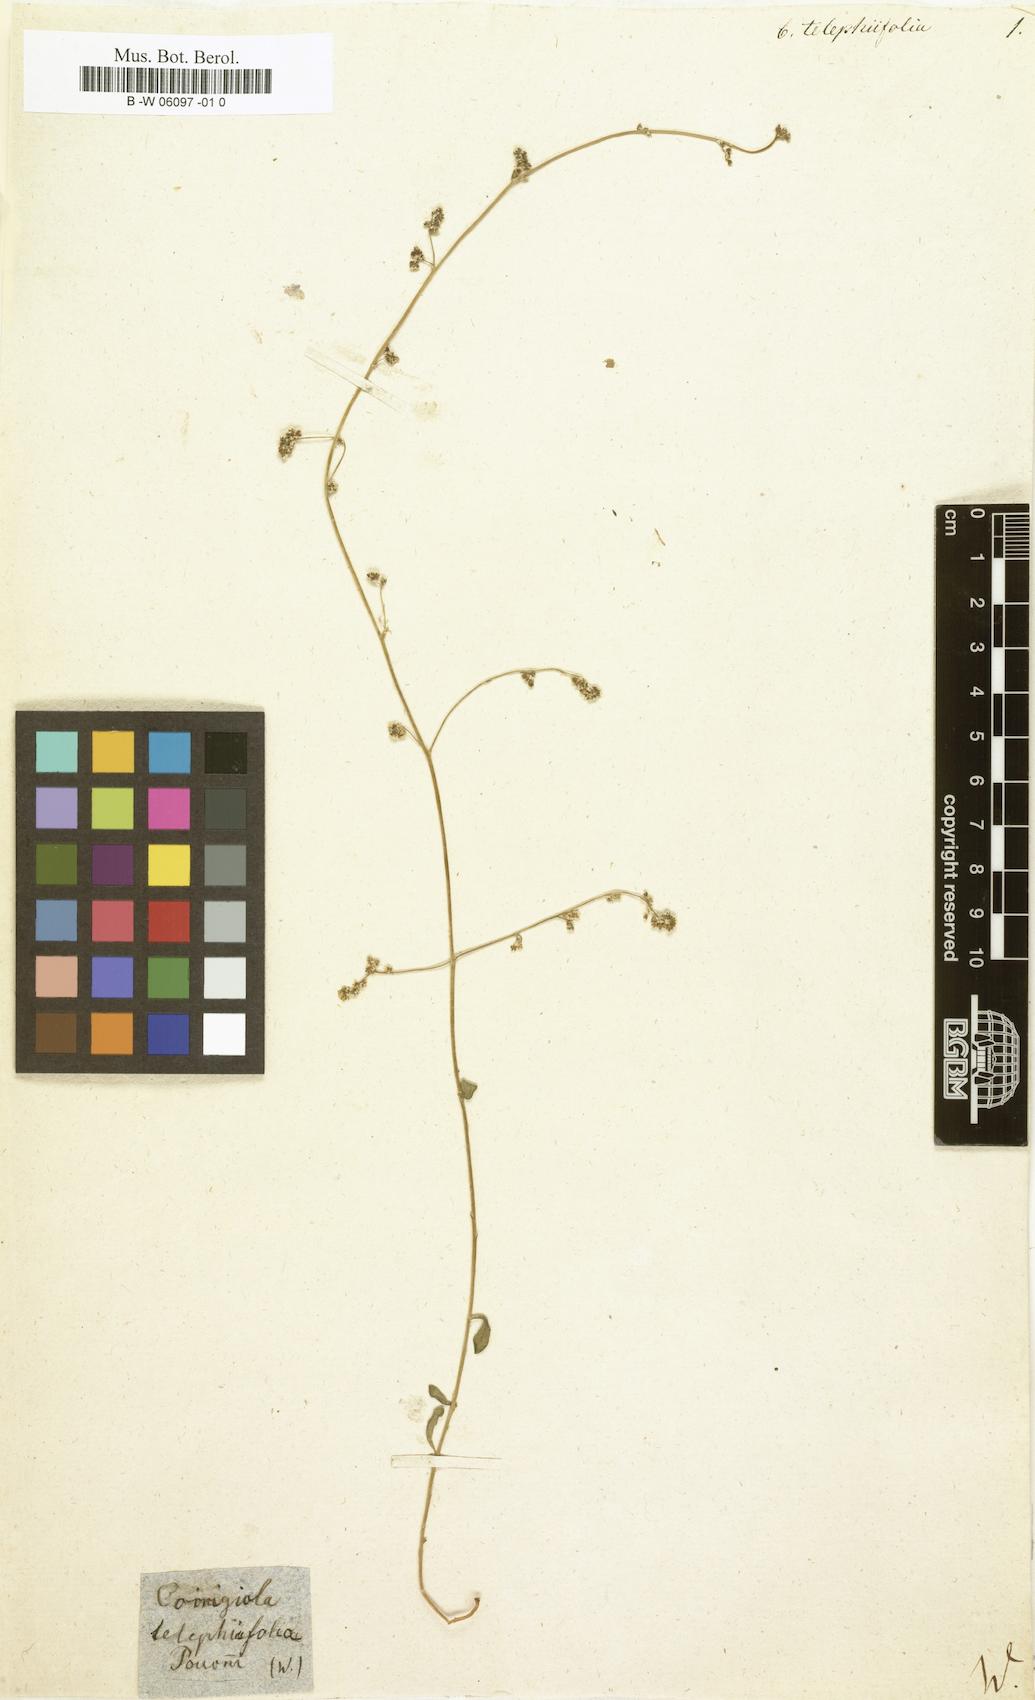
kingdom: Plantae
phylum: Tracheophyta
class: Magnoliopsida
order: Caryophyllales
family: Caryophyllaceae
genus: Corrigiola
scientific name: Corrigiola telephiifolia
